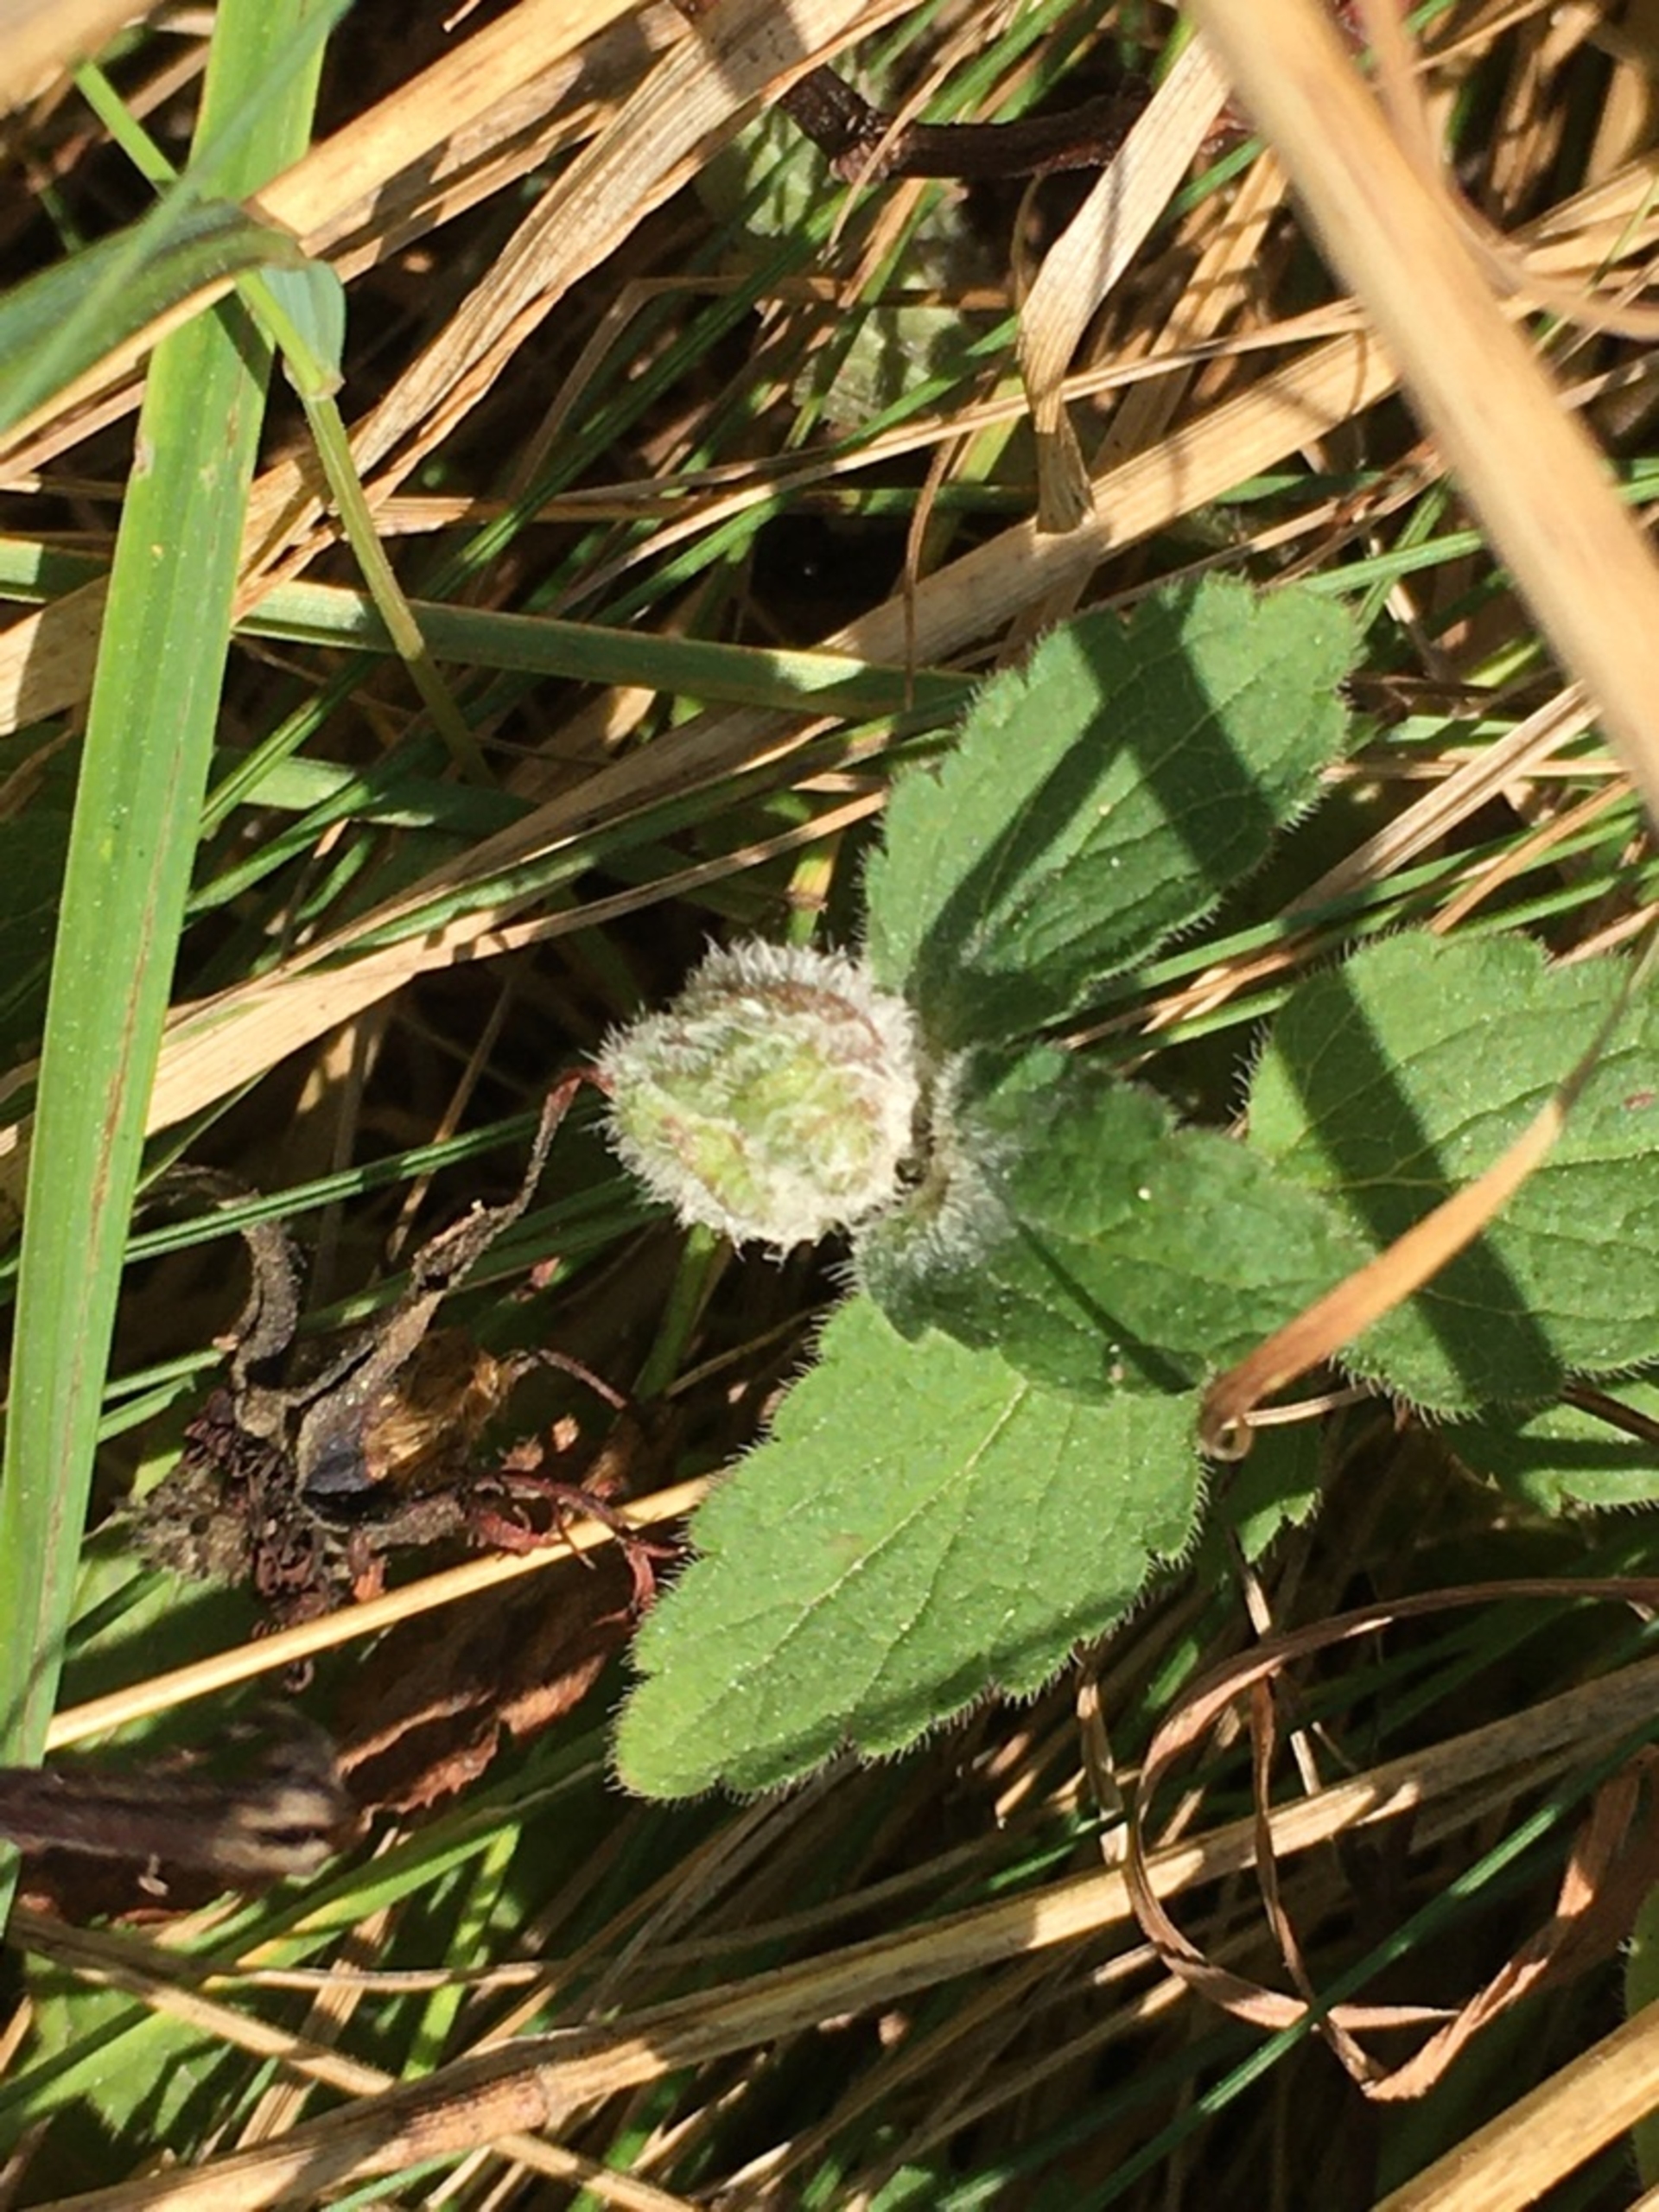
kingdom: Animalia
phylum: Arthropoda
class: Insecta
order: Diptera
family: Cecidomyiidae
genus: Jaapiella
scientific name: Jaapiella veronicae
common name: Ærenprisgalmyg
